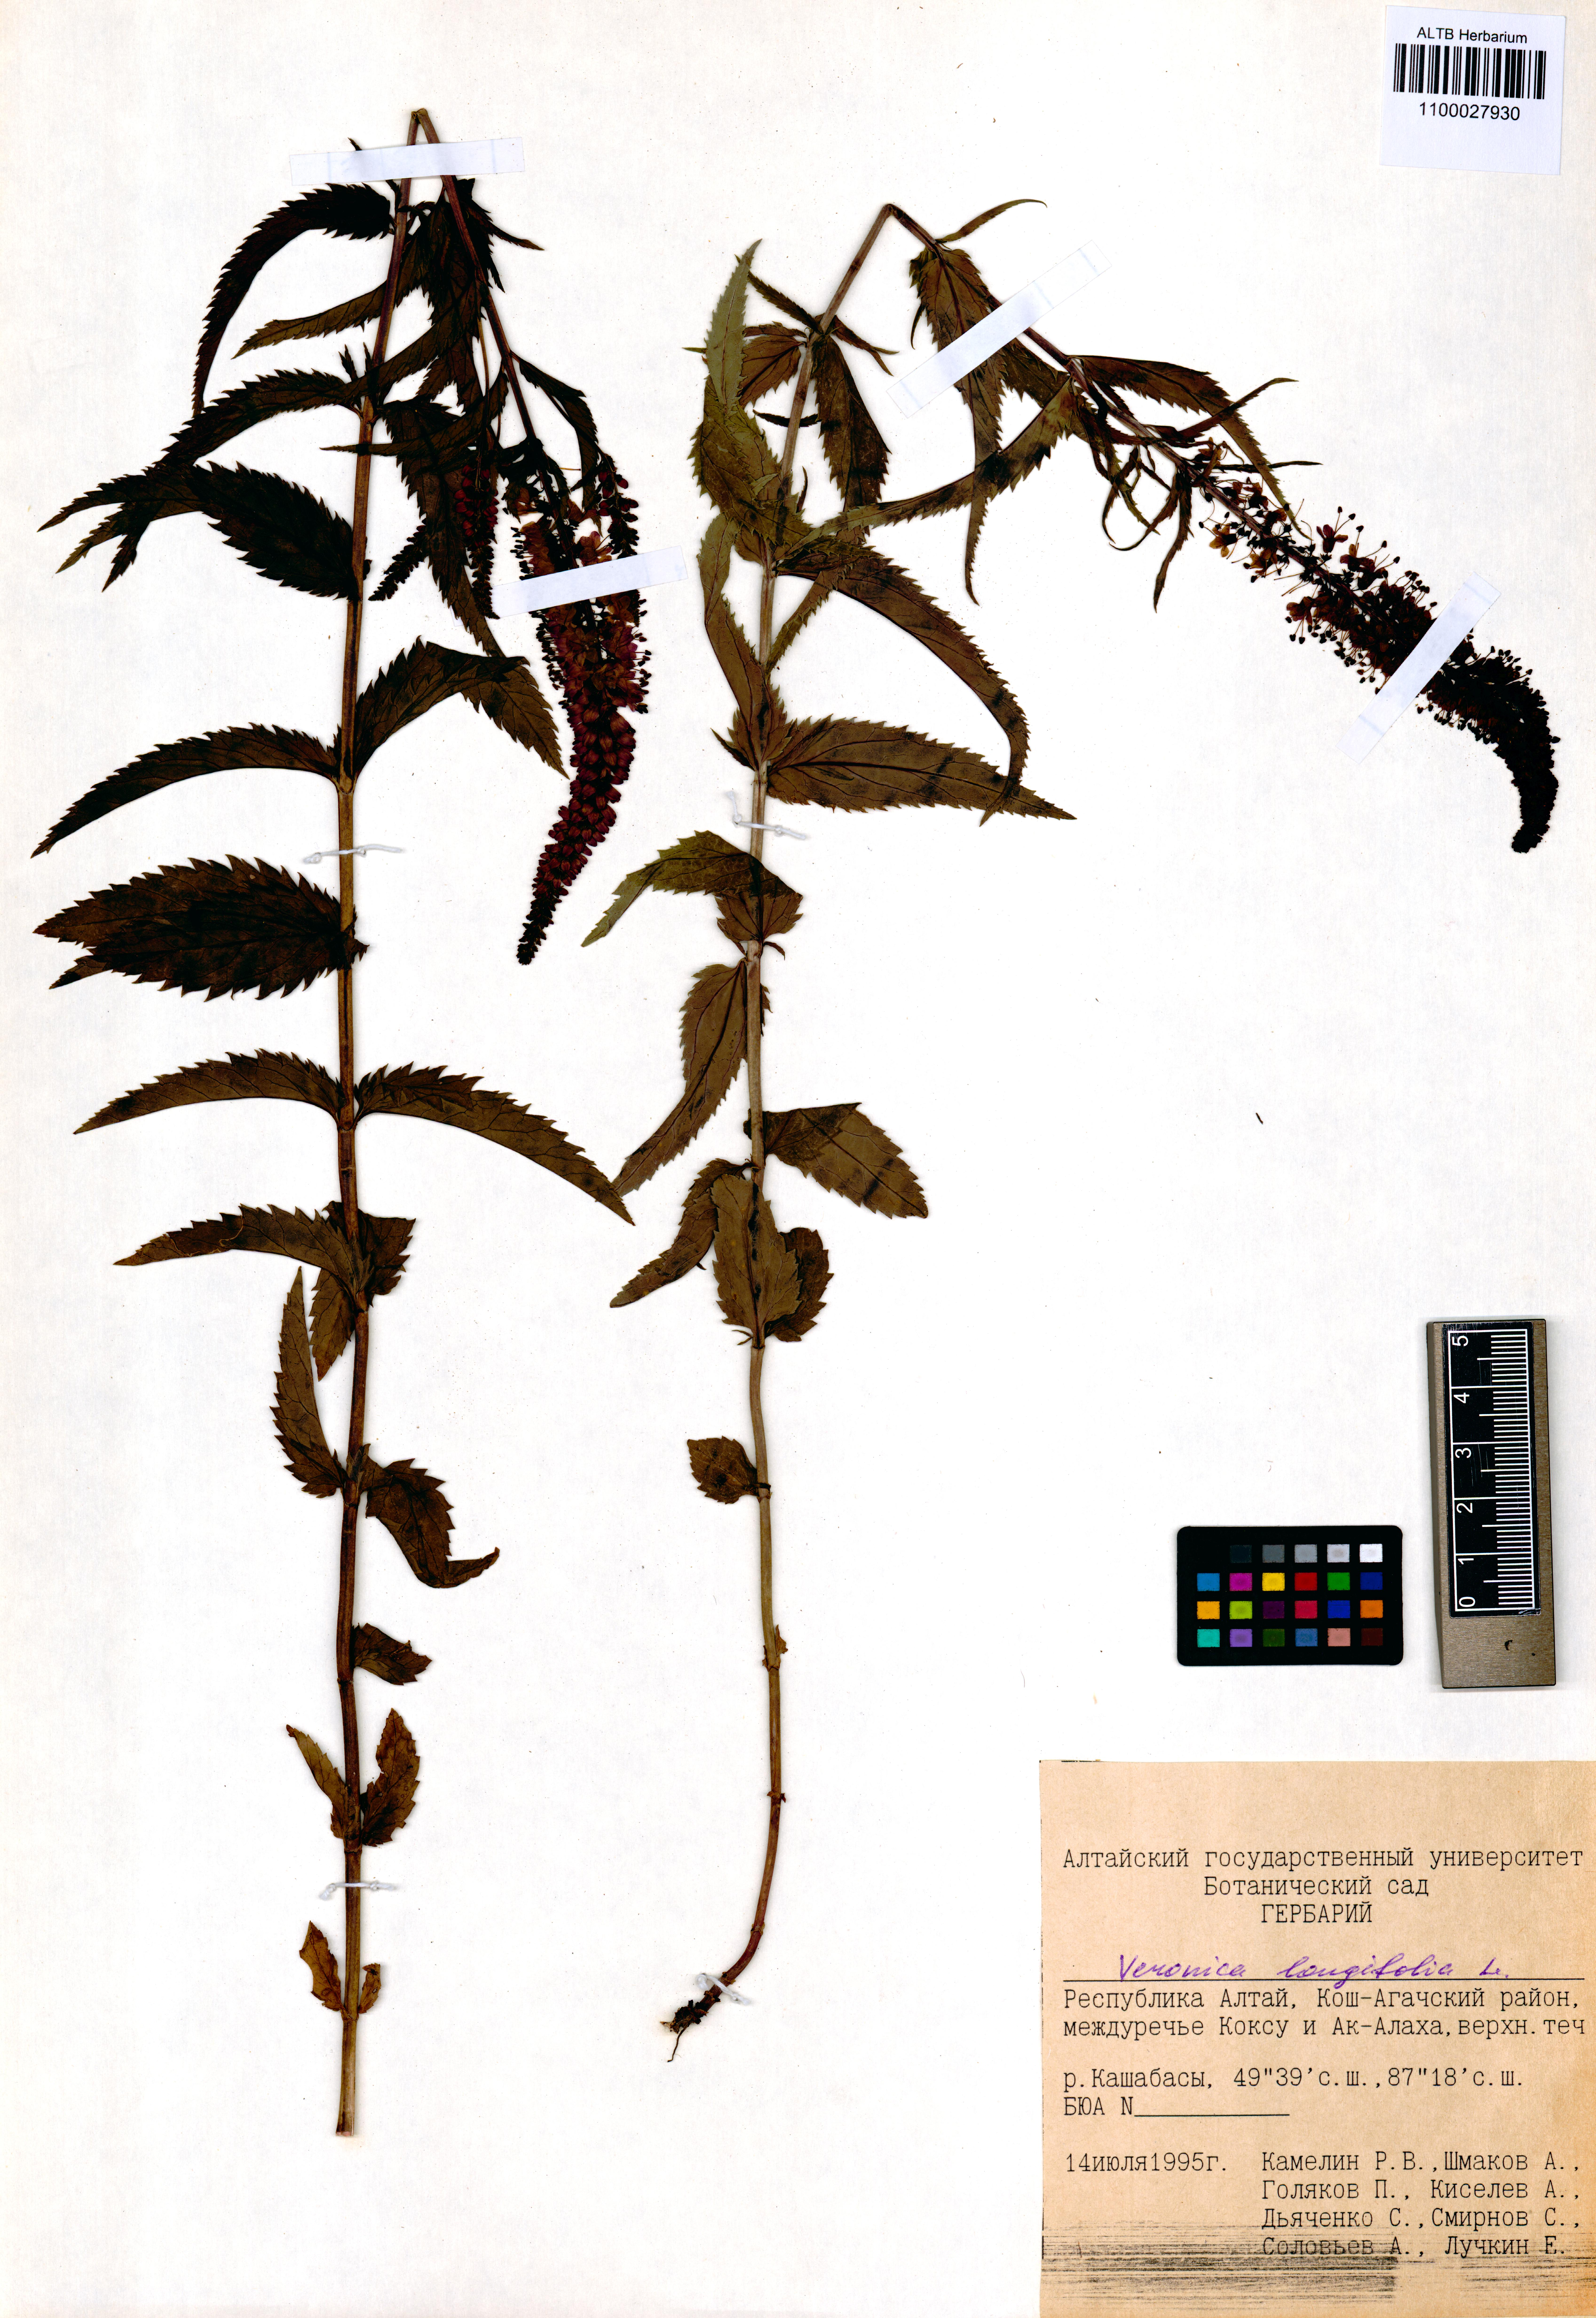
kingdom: Plantae
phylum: Tracheophyta
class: Magnoliopsida
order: Lamiales
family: Plantaginaceae
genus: Veronica
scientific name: Veronica longifolia
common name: Garden speedwell
